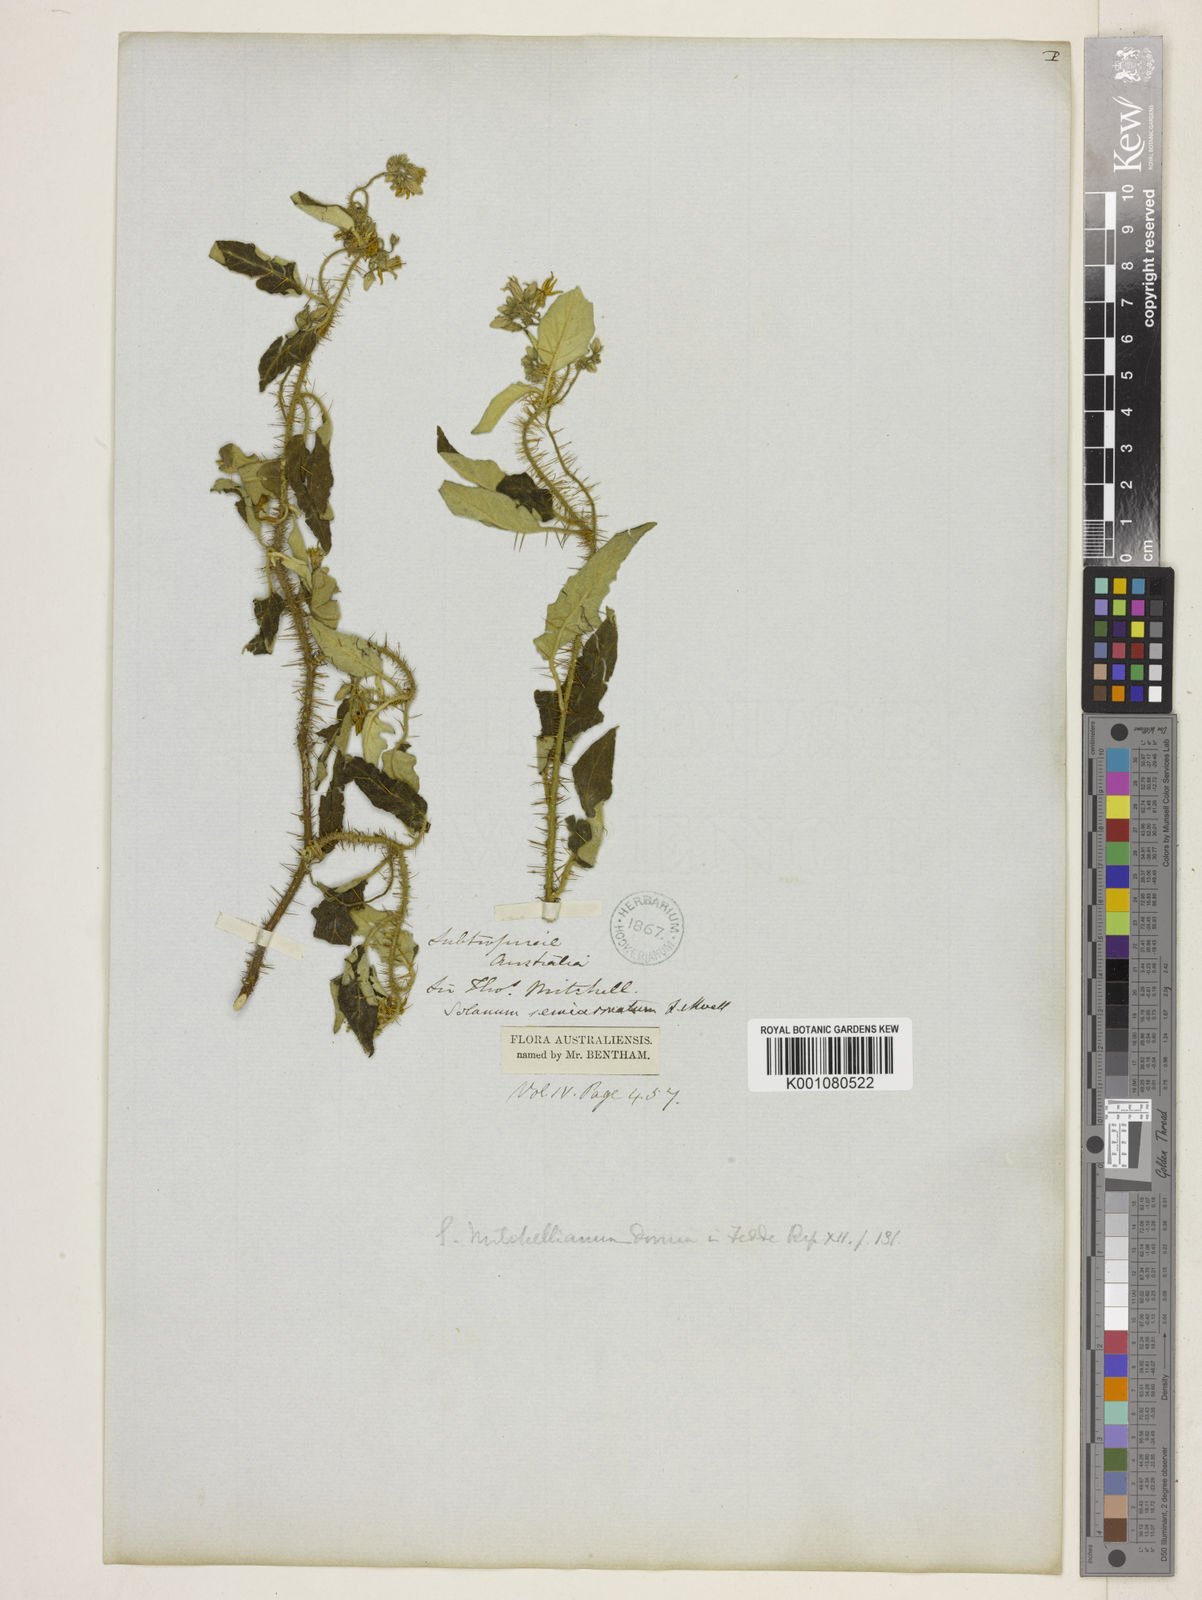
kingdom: Plantae
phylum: Tracheophyta
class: Magnoliopsida
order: Solanales
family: Solanaceae
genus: Solanum
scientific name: Solanum semiarmatum
